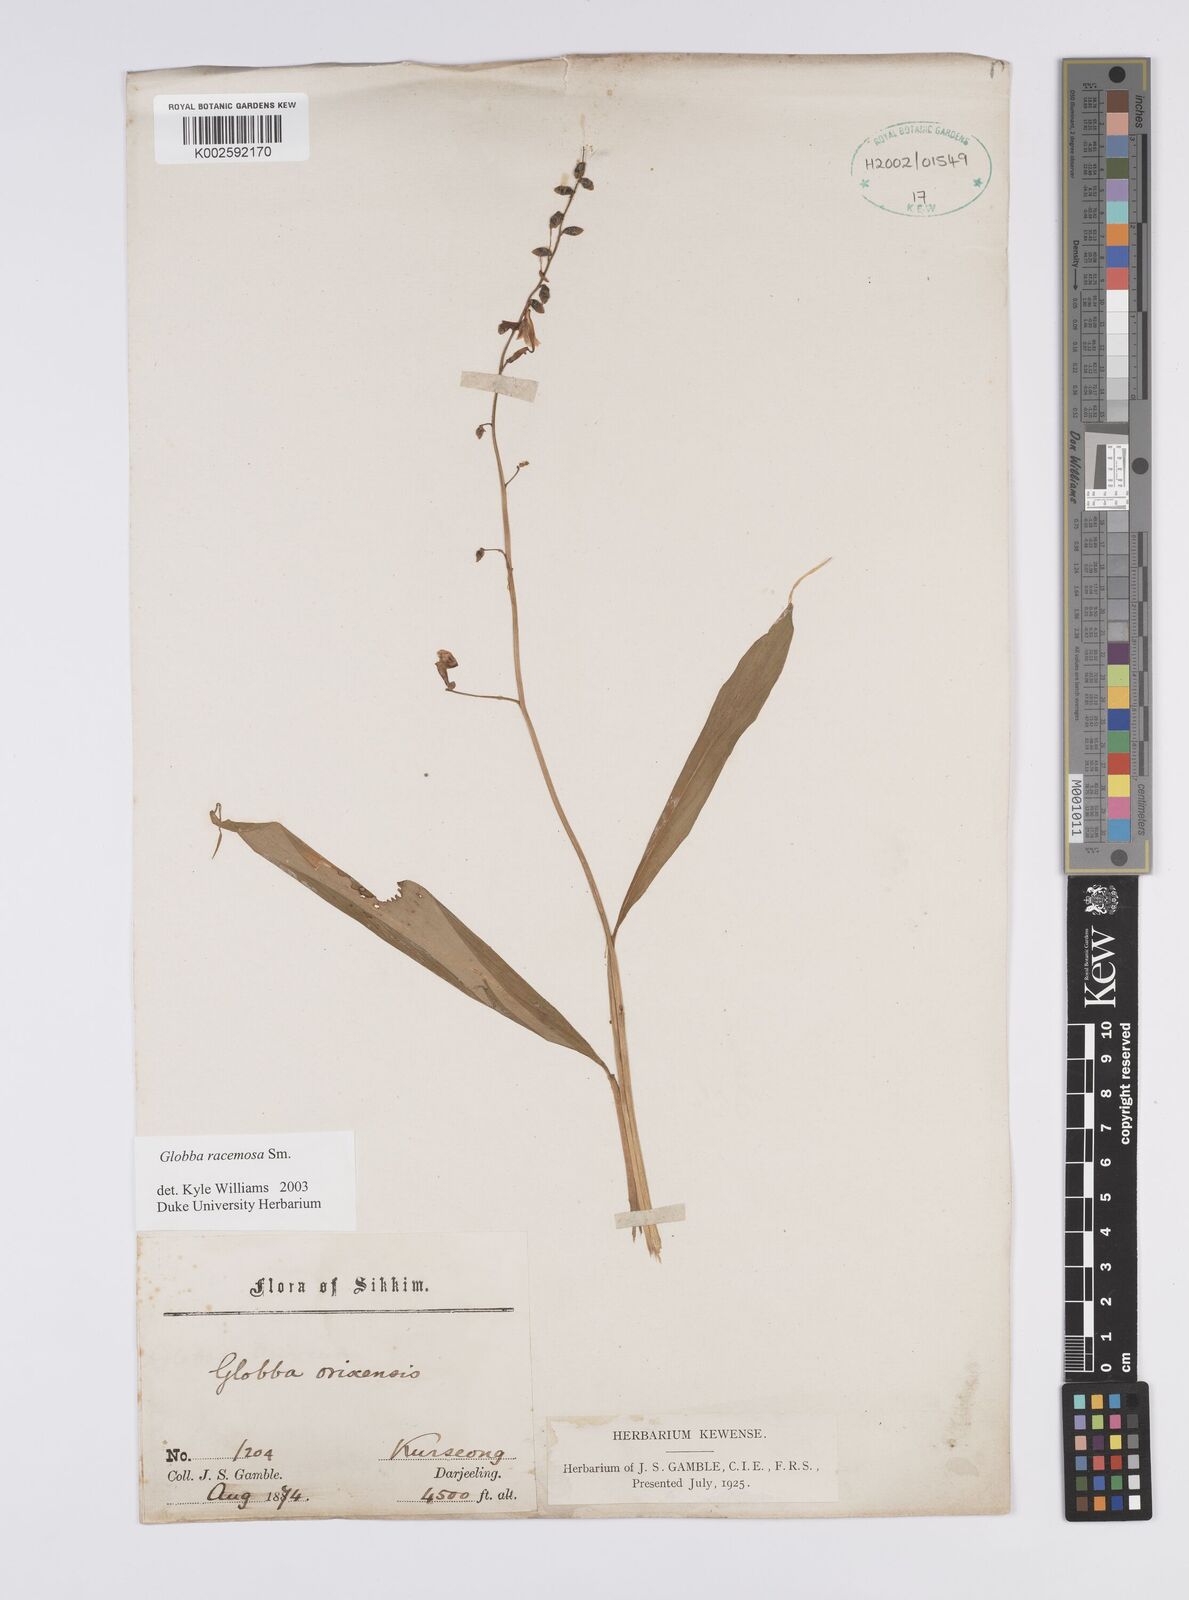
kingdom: Plantae
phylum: Tracheophyta
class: Liliopsida
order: Zingiberales
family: Zingiberaceae
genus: Globba
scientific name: Globba racemosa
